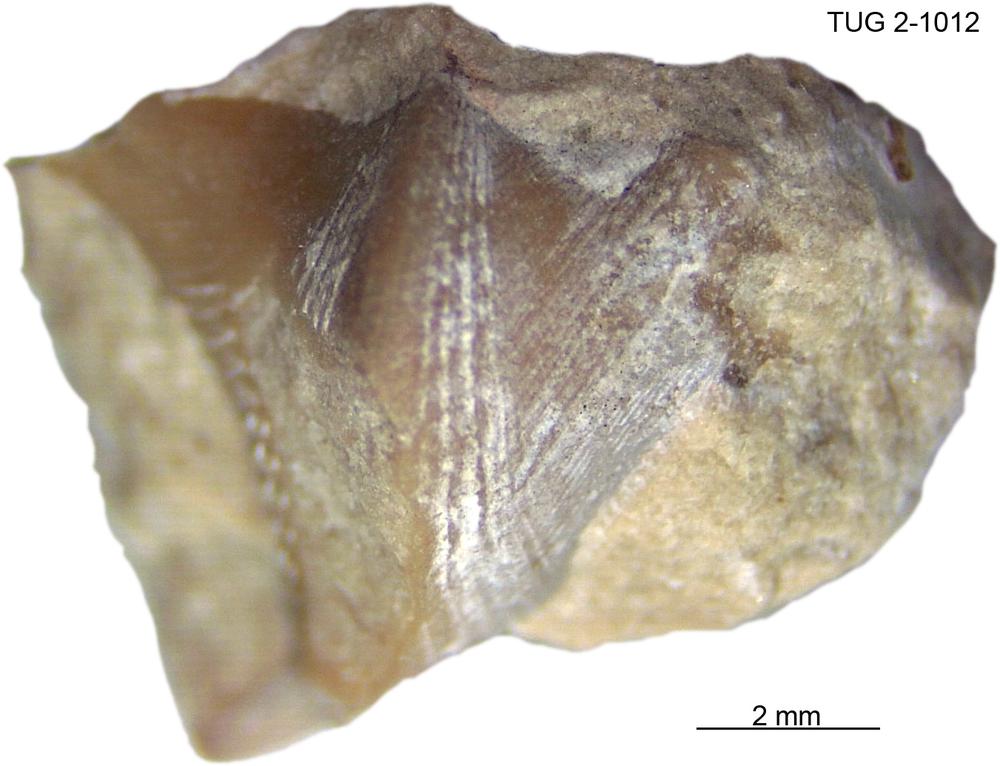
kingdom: Animalia
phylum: Mollusca
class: Rostroconchia
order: Conocardiida
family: Hippocardiidae
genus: Hippocardia
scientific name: Hippocardia
